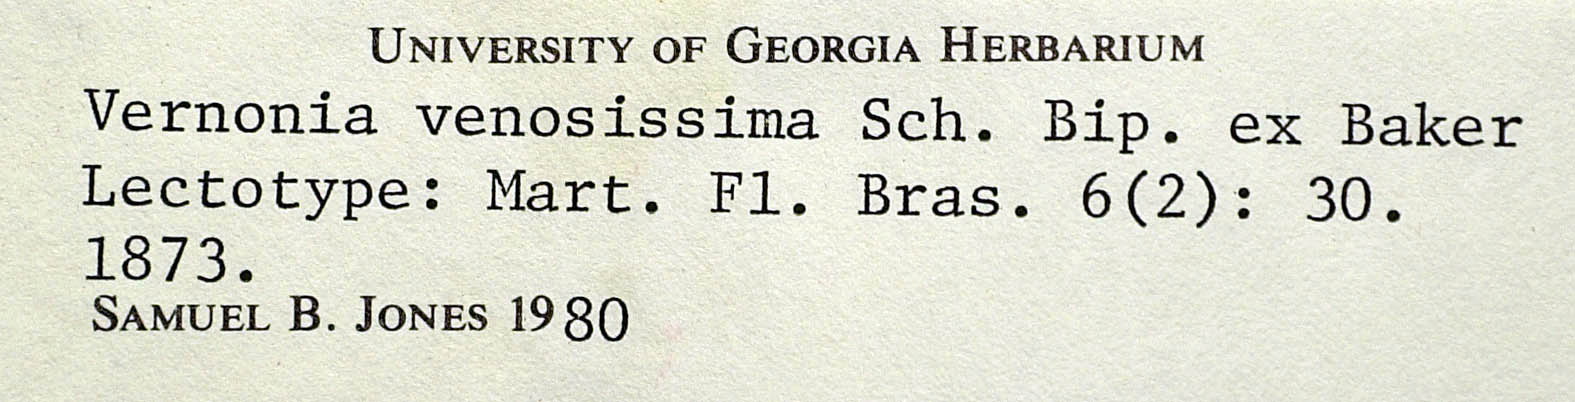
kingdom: Plantae
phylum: Tracheophyta
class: Magnoliopsida
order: Asterales
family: Asteraceae
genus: Lessingianthus
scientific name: Lessingianthus venosissimus
